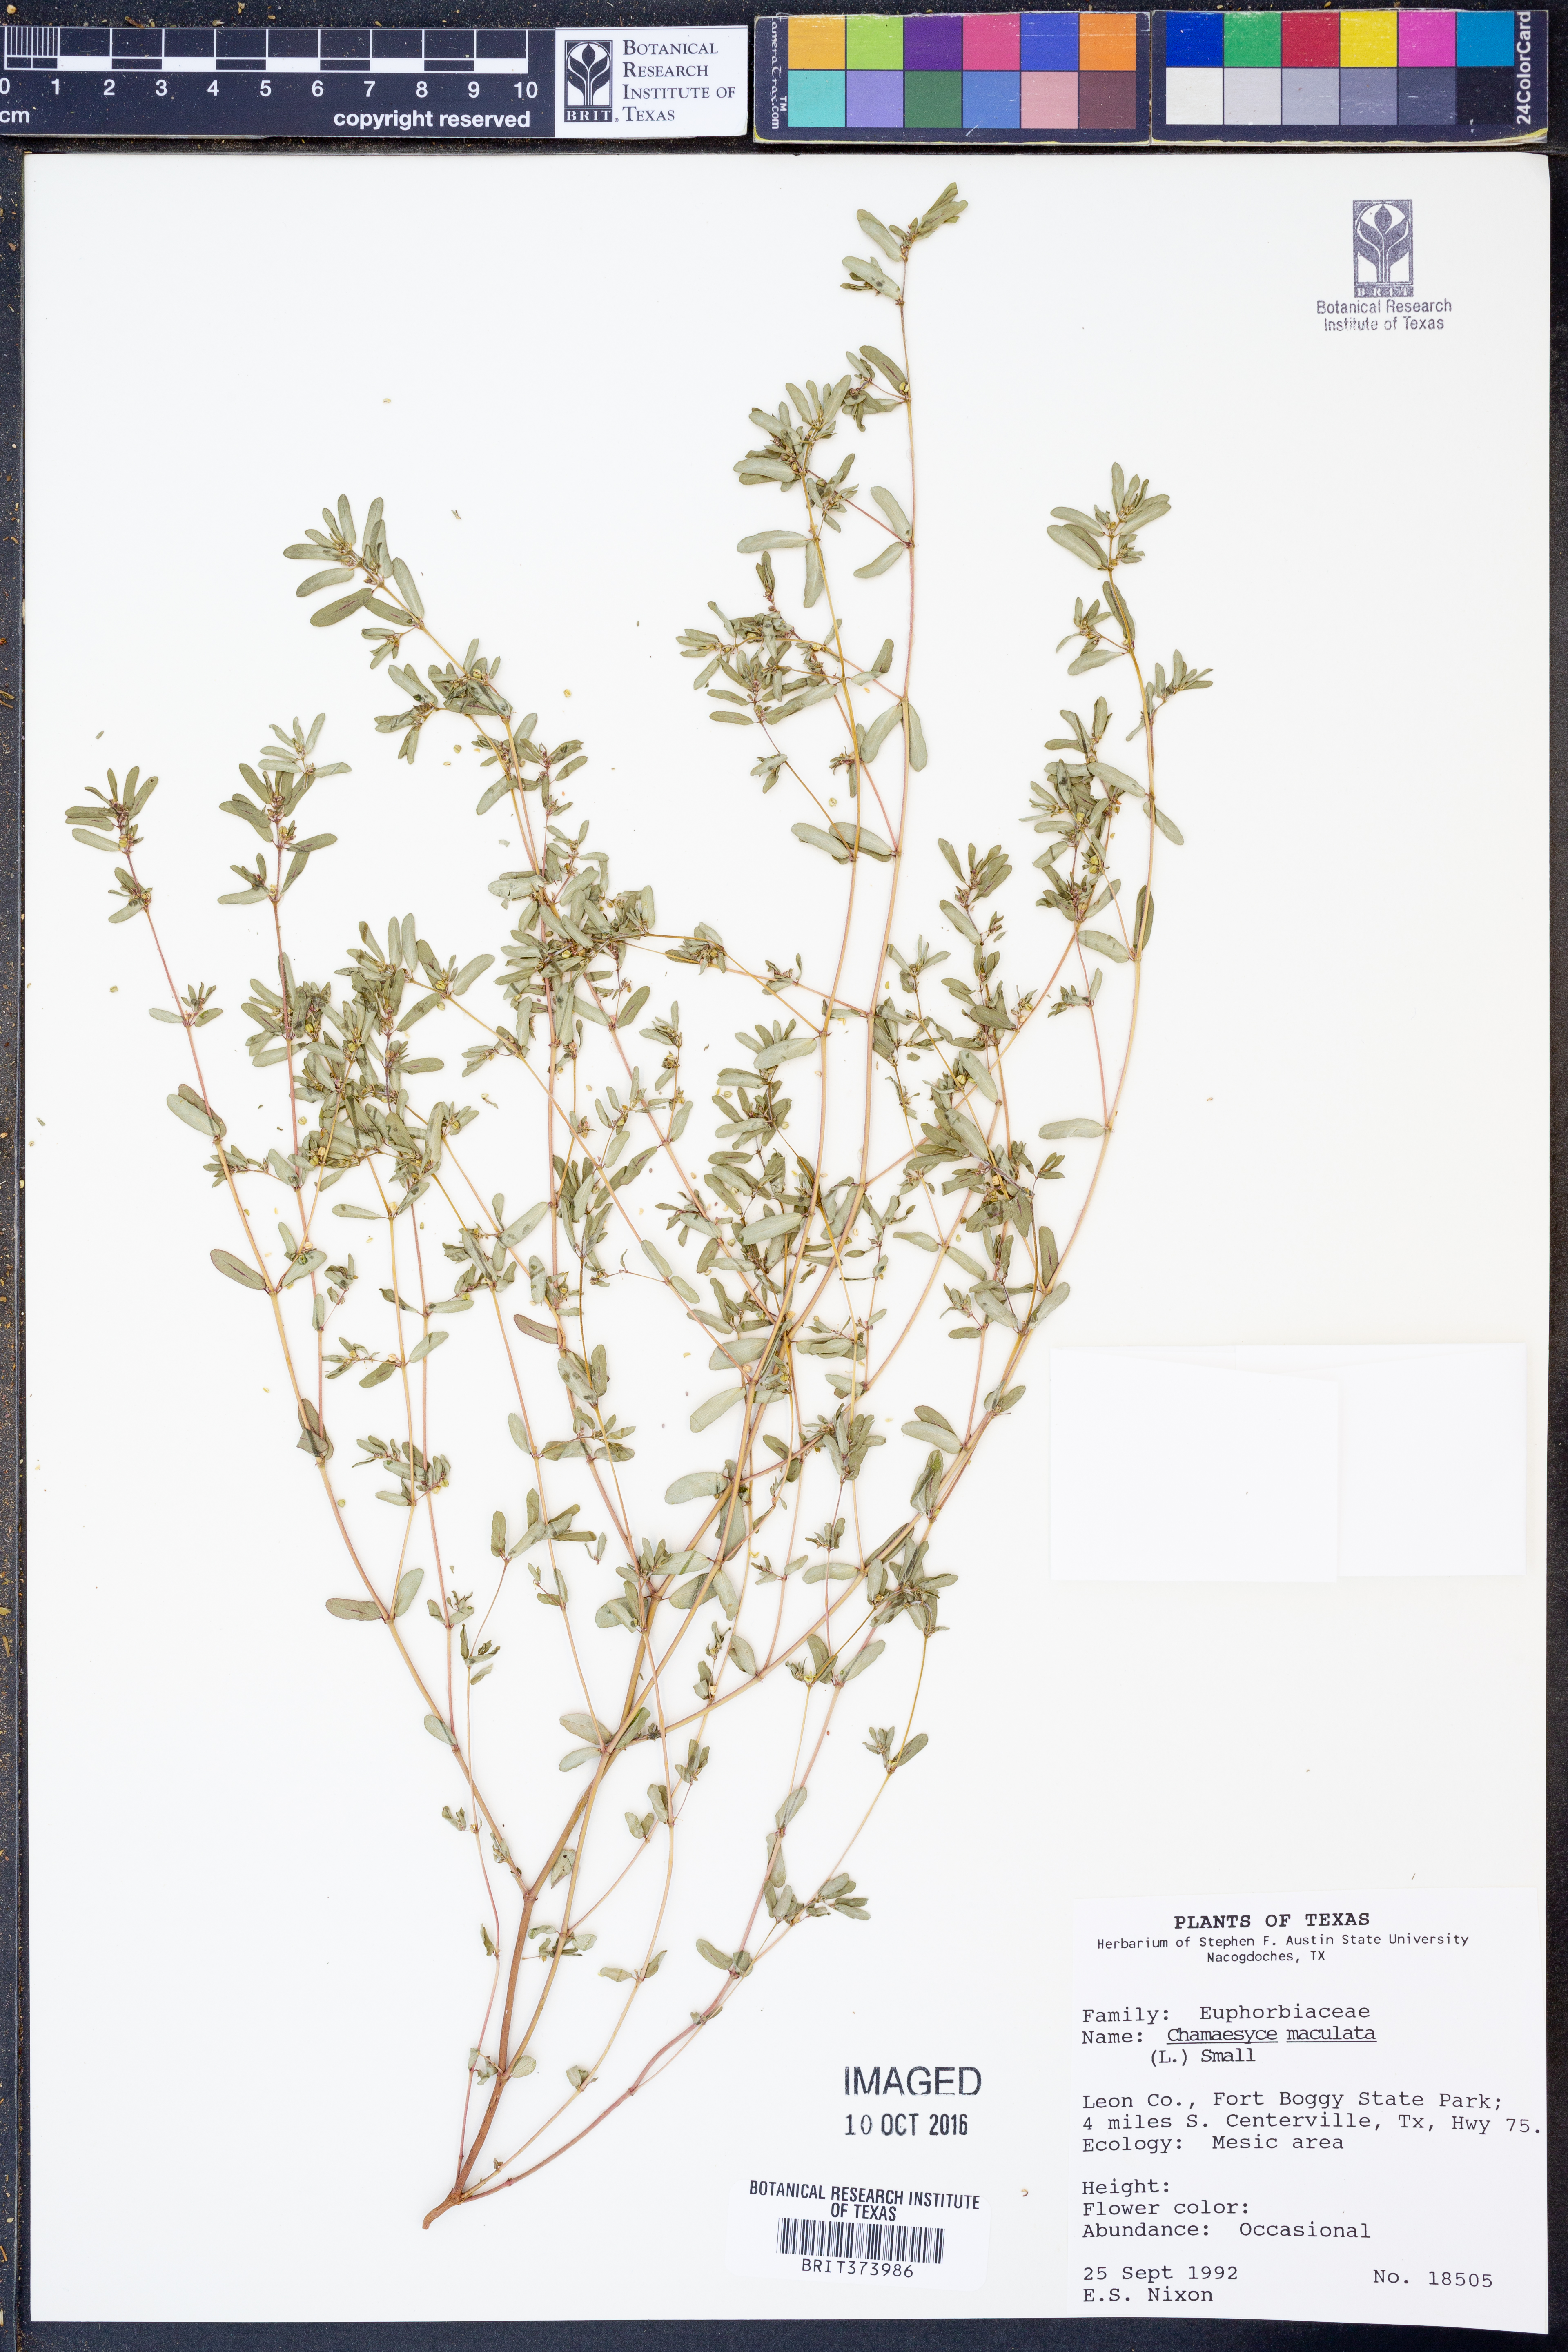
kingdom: Plantae
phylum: Tracheophyta
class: Magnoliopsida
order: Malpighiales
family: Euphorbiaceae
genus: Euphorbia
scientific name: Euphorbia maculata
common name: Spotted spurge
